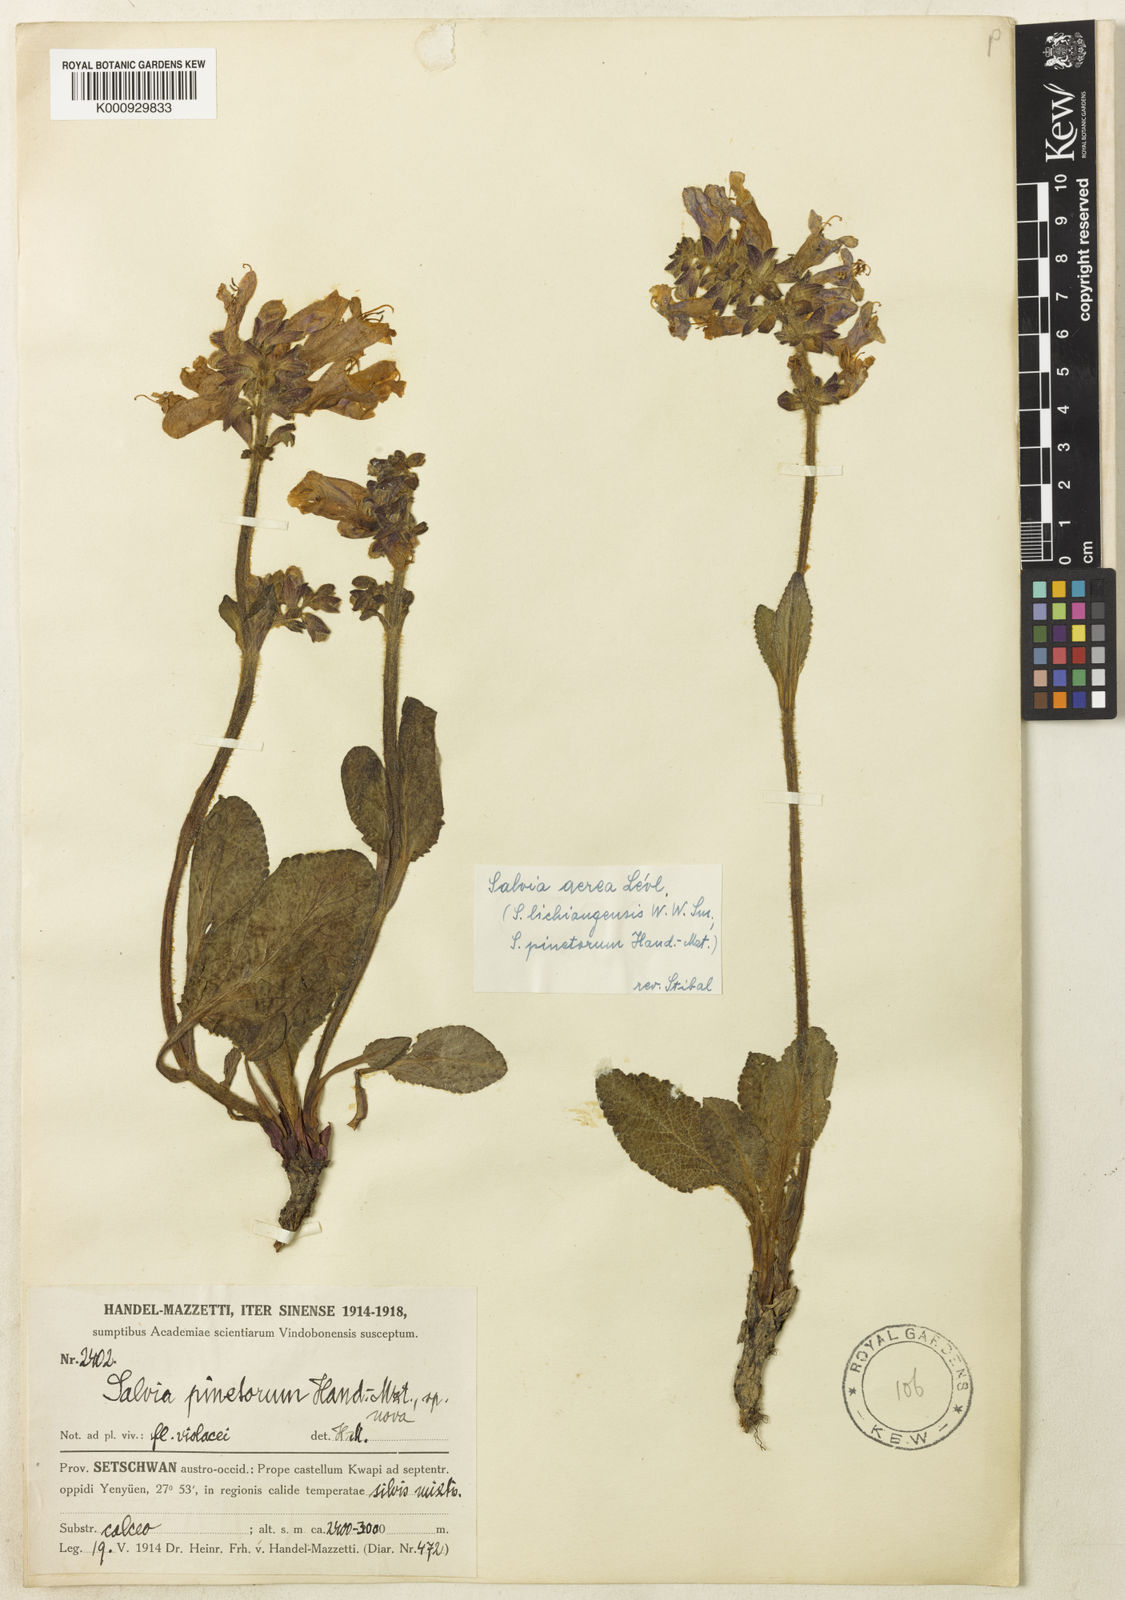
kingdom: Plantae
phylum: Tracheophyta
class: Magnoliopsida
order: Lamiales
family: Lamiaceae
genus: Salvia
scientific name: Salvia
